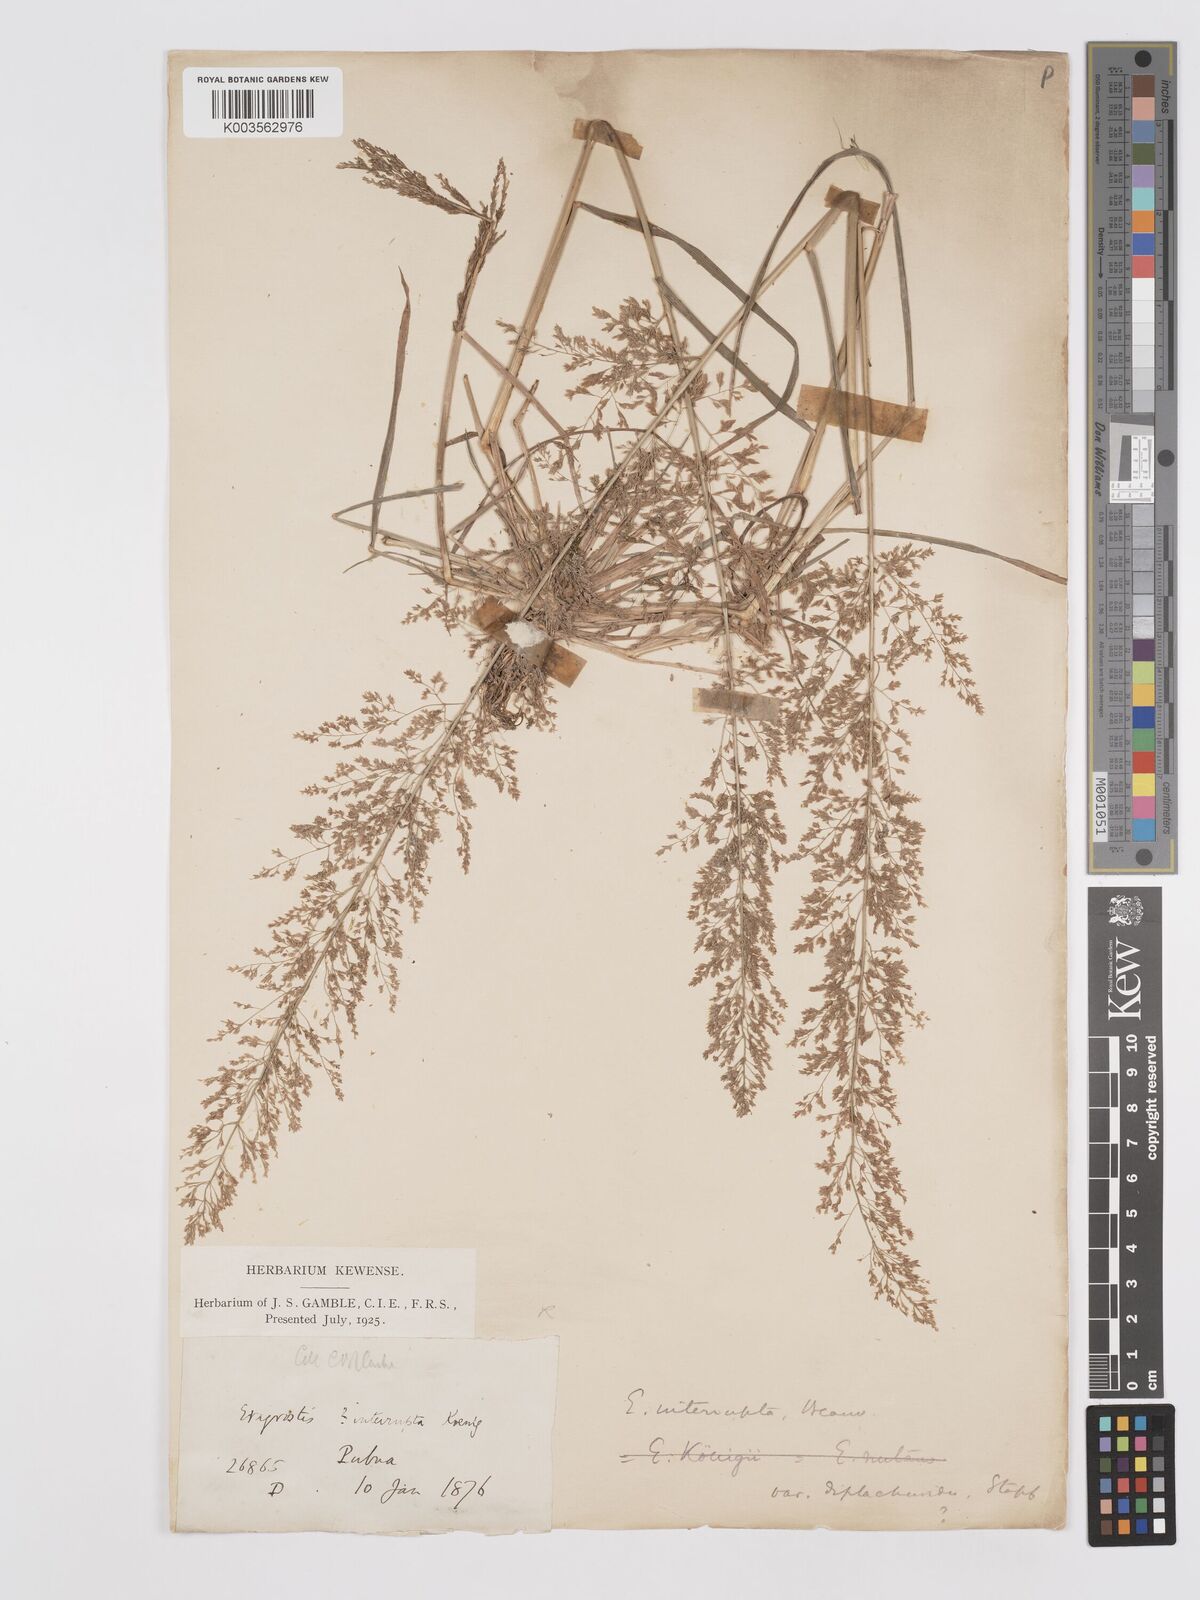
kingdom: Plantae
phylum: Tracheophyta
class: Liliopsida
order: Poales
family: Poaceae
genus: Eragrostis
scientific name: Eragrostis japonica
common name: Pond lovegrass
